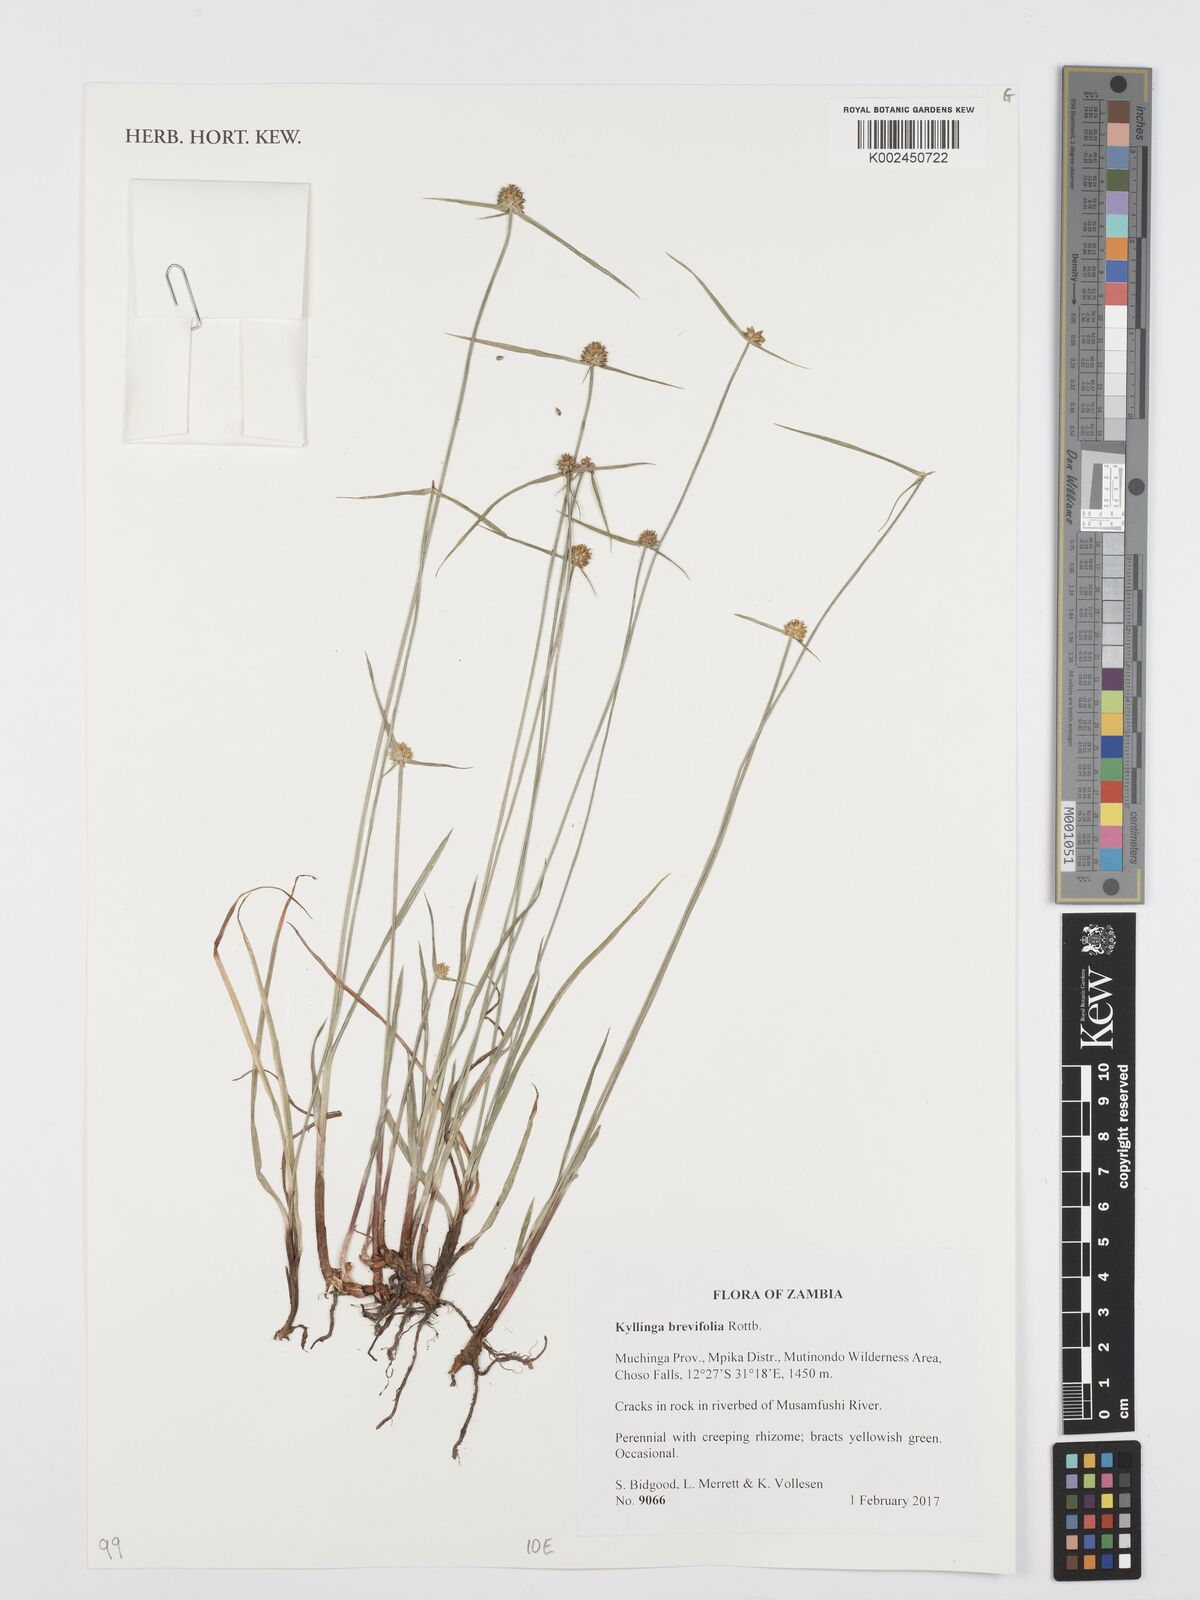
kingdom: Plantae
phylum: Tracheophyta
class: Liliopsida
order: Poales
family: Cyperaceae
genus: Cyperus
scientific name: Cyperus brevifolius
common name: Globe kyllinga
